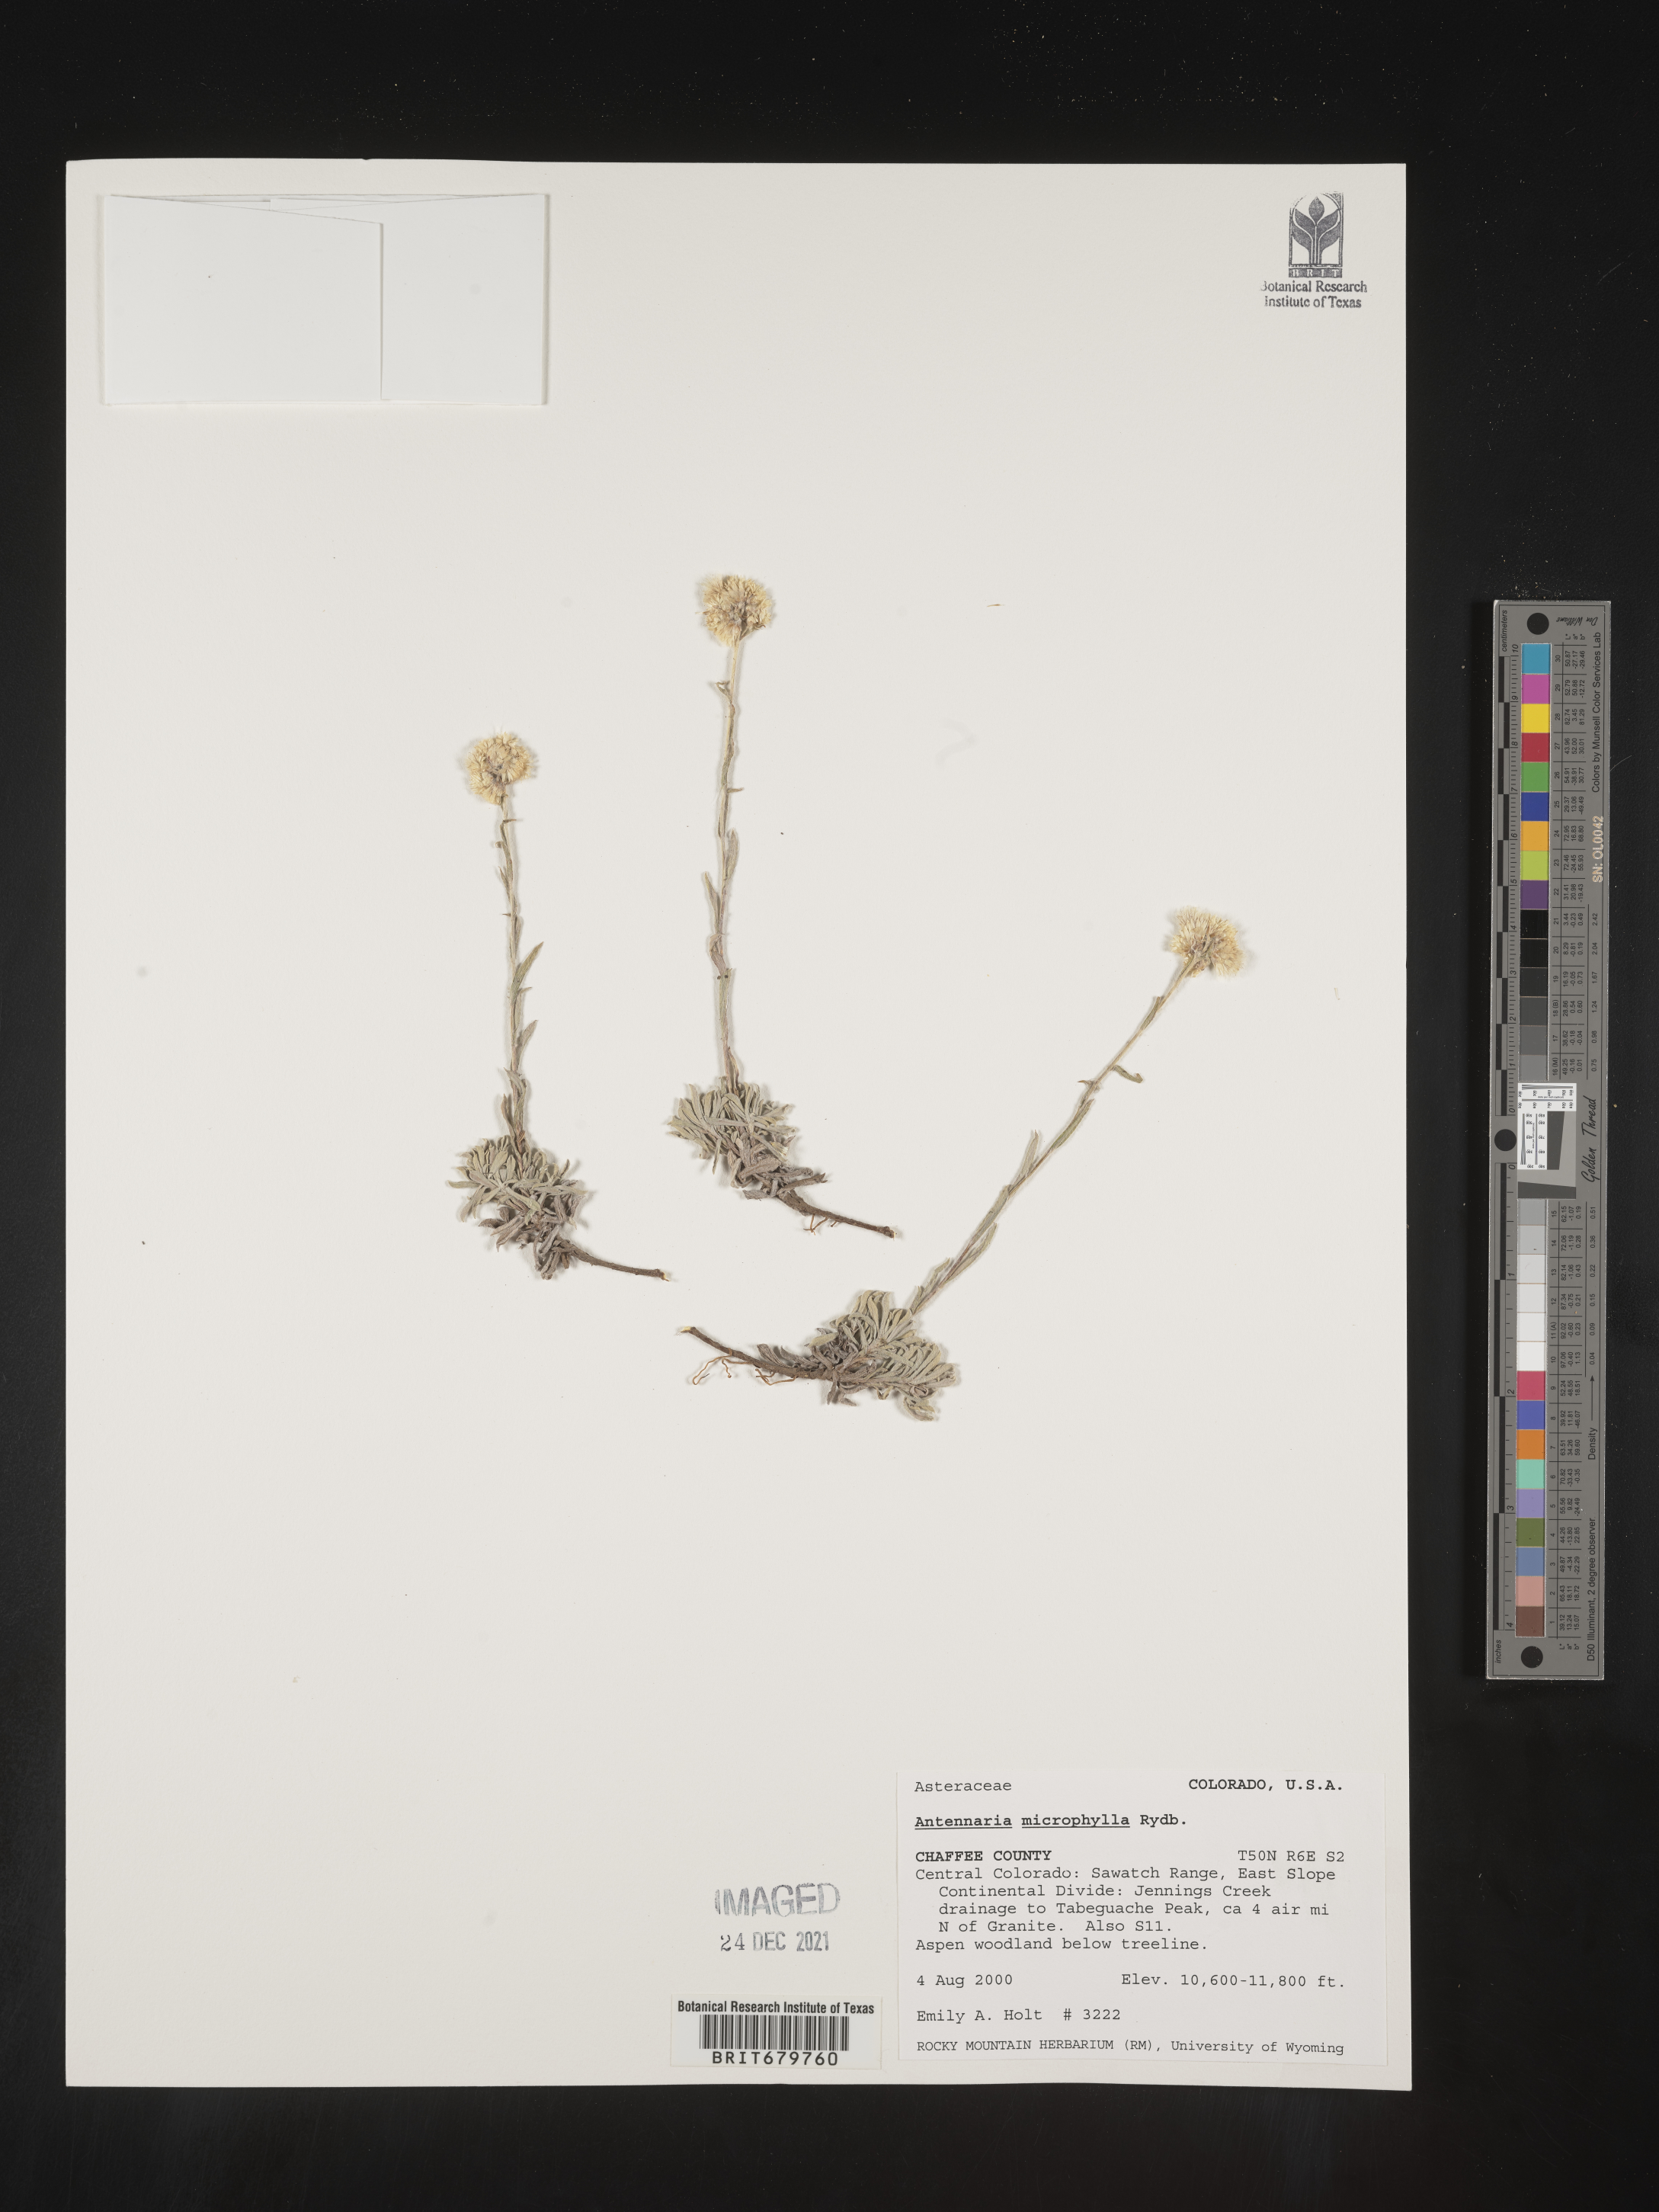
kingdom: Plantae
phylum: Tracheophyta
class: Magnoliopsida
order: Asterales
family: Asteraceae
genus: Antennaria
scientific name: Antennaria microphylla
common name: Littleleaf pussytoes
